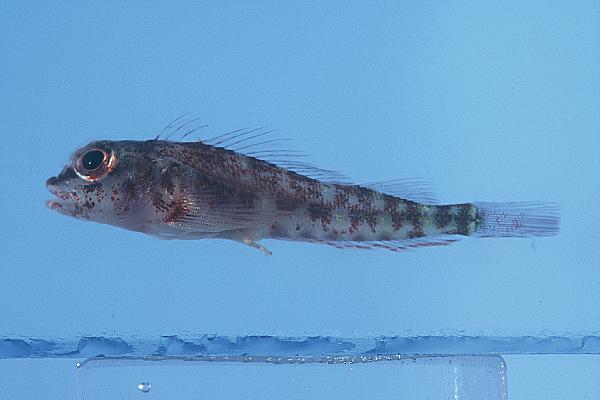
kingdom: Animalia
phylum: Chordata
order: Perciformes
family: Tripterygiidae
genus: Helcogramma
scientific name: Helcogramma fuscopinna
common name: Blackfin triplefin
